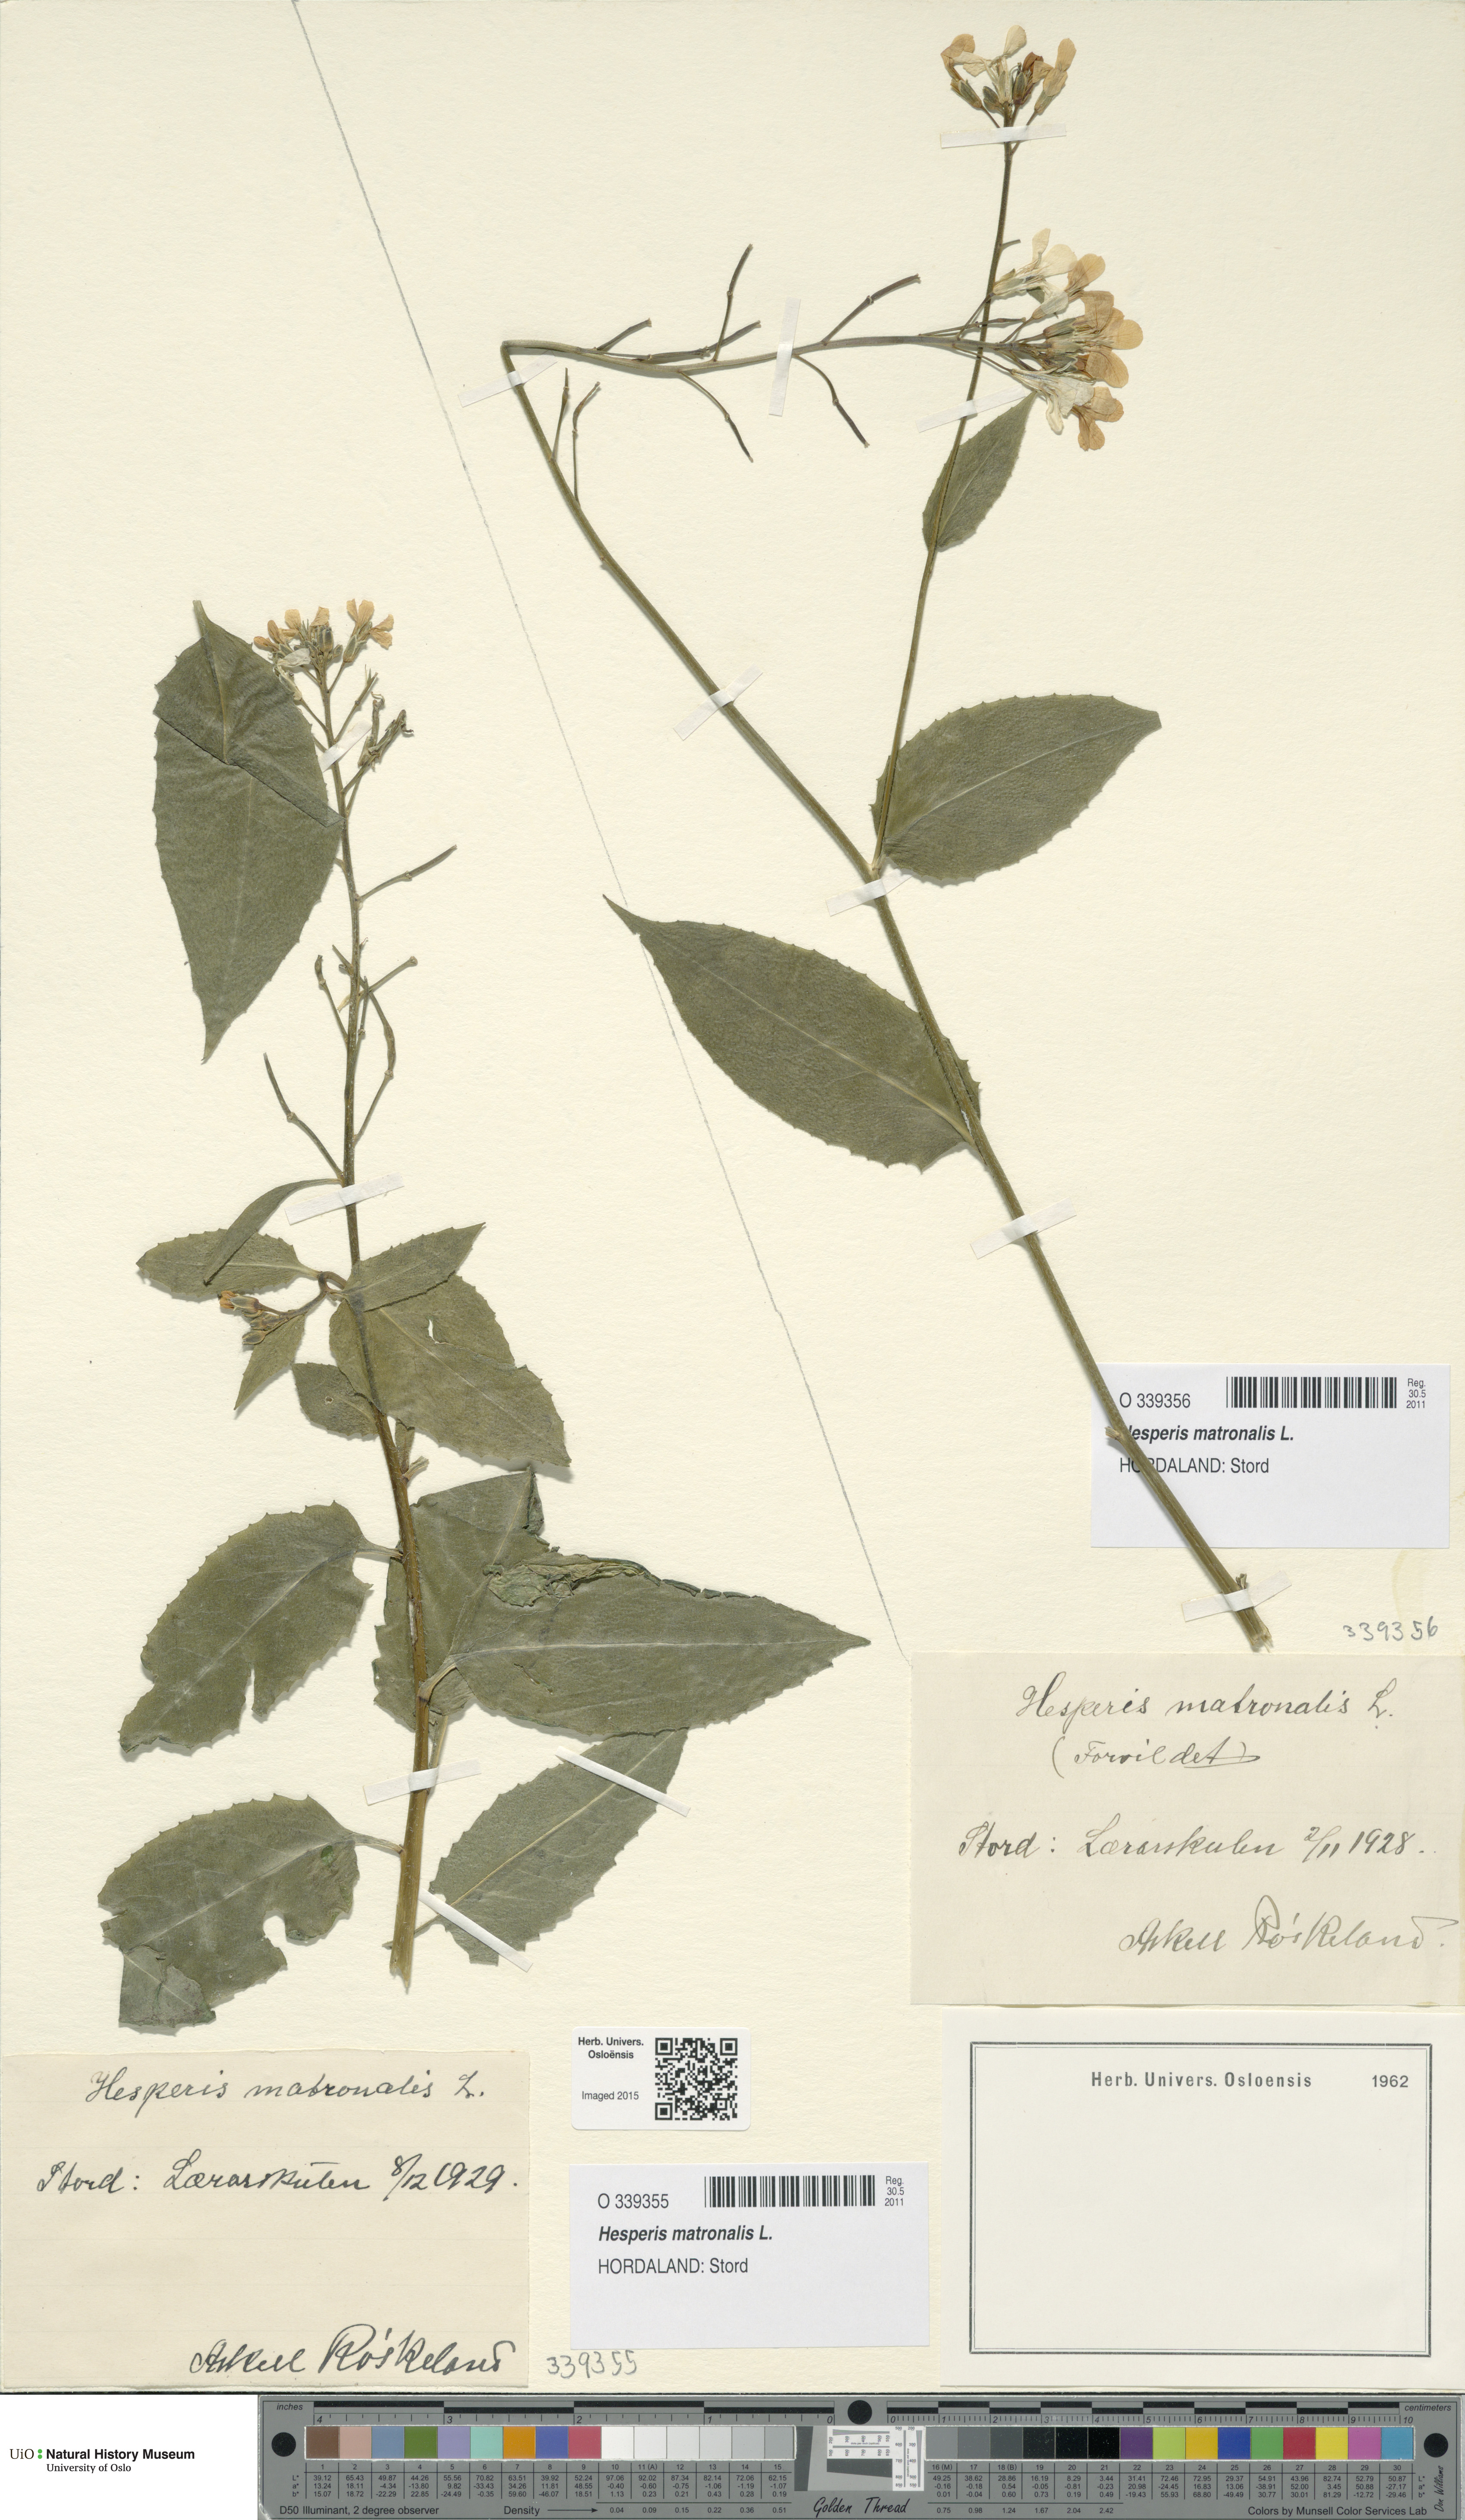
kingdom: Plantae
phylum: Tracheophyta
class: Magnoliopsida
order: Brassicales
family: Brassicaceae
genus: Hesperis
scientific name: Hesperis matronalis
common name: Dame's-violet
